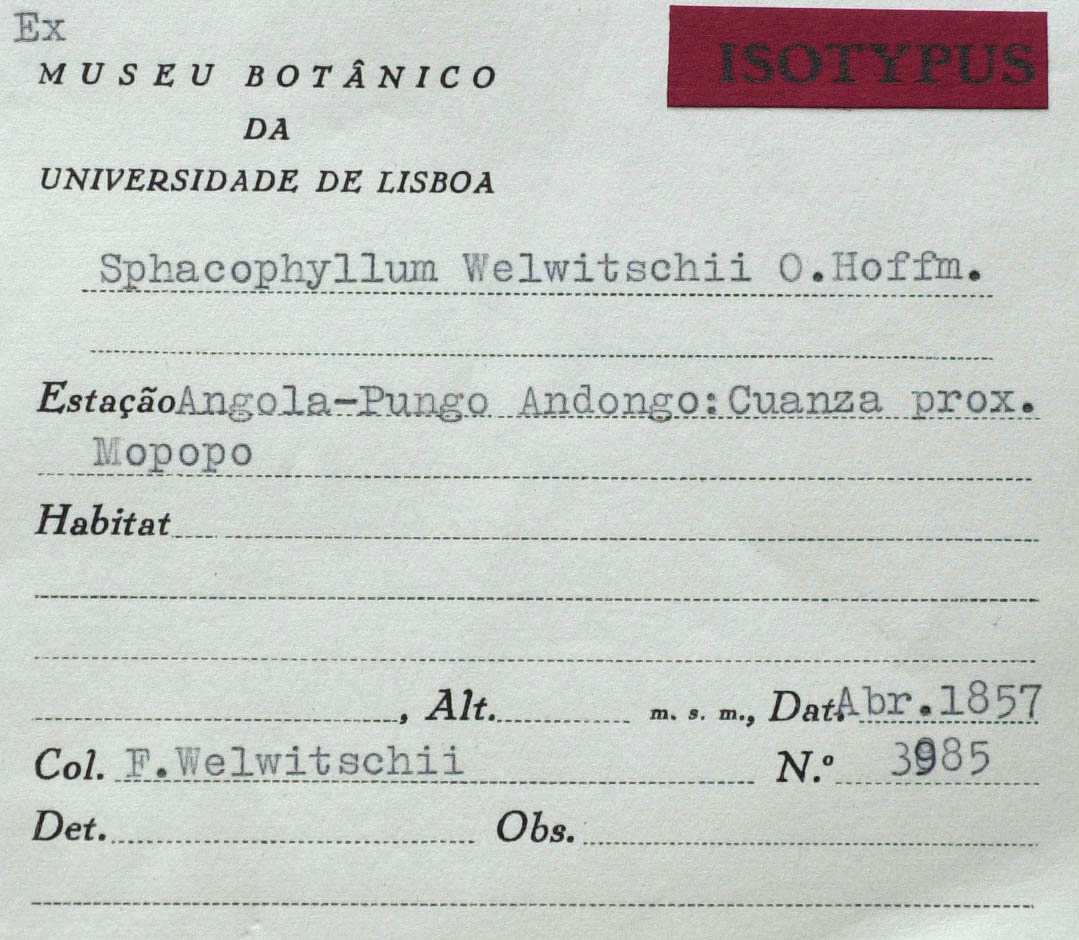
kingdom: Plantae
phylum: Tracheophyta
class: Magnoliopsida
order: Asterales
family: Asteraceae
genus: Anisopappus
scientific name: Anisopappus lastii
